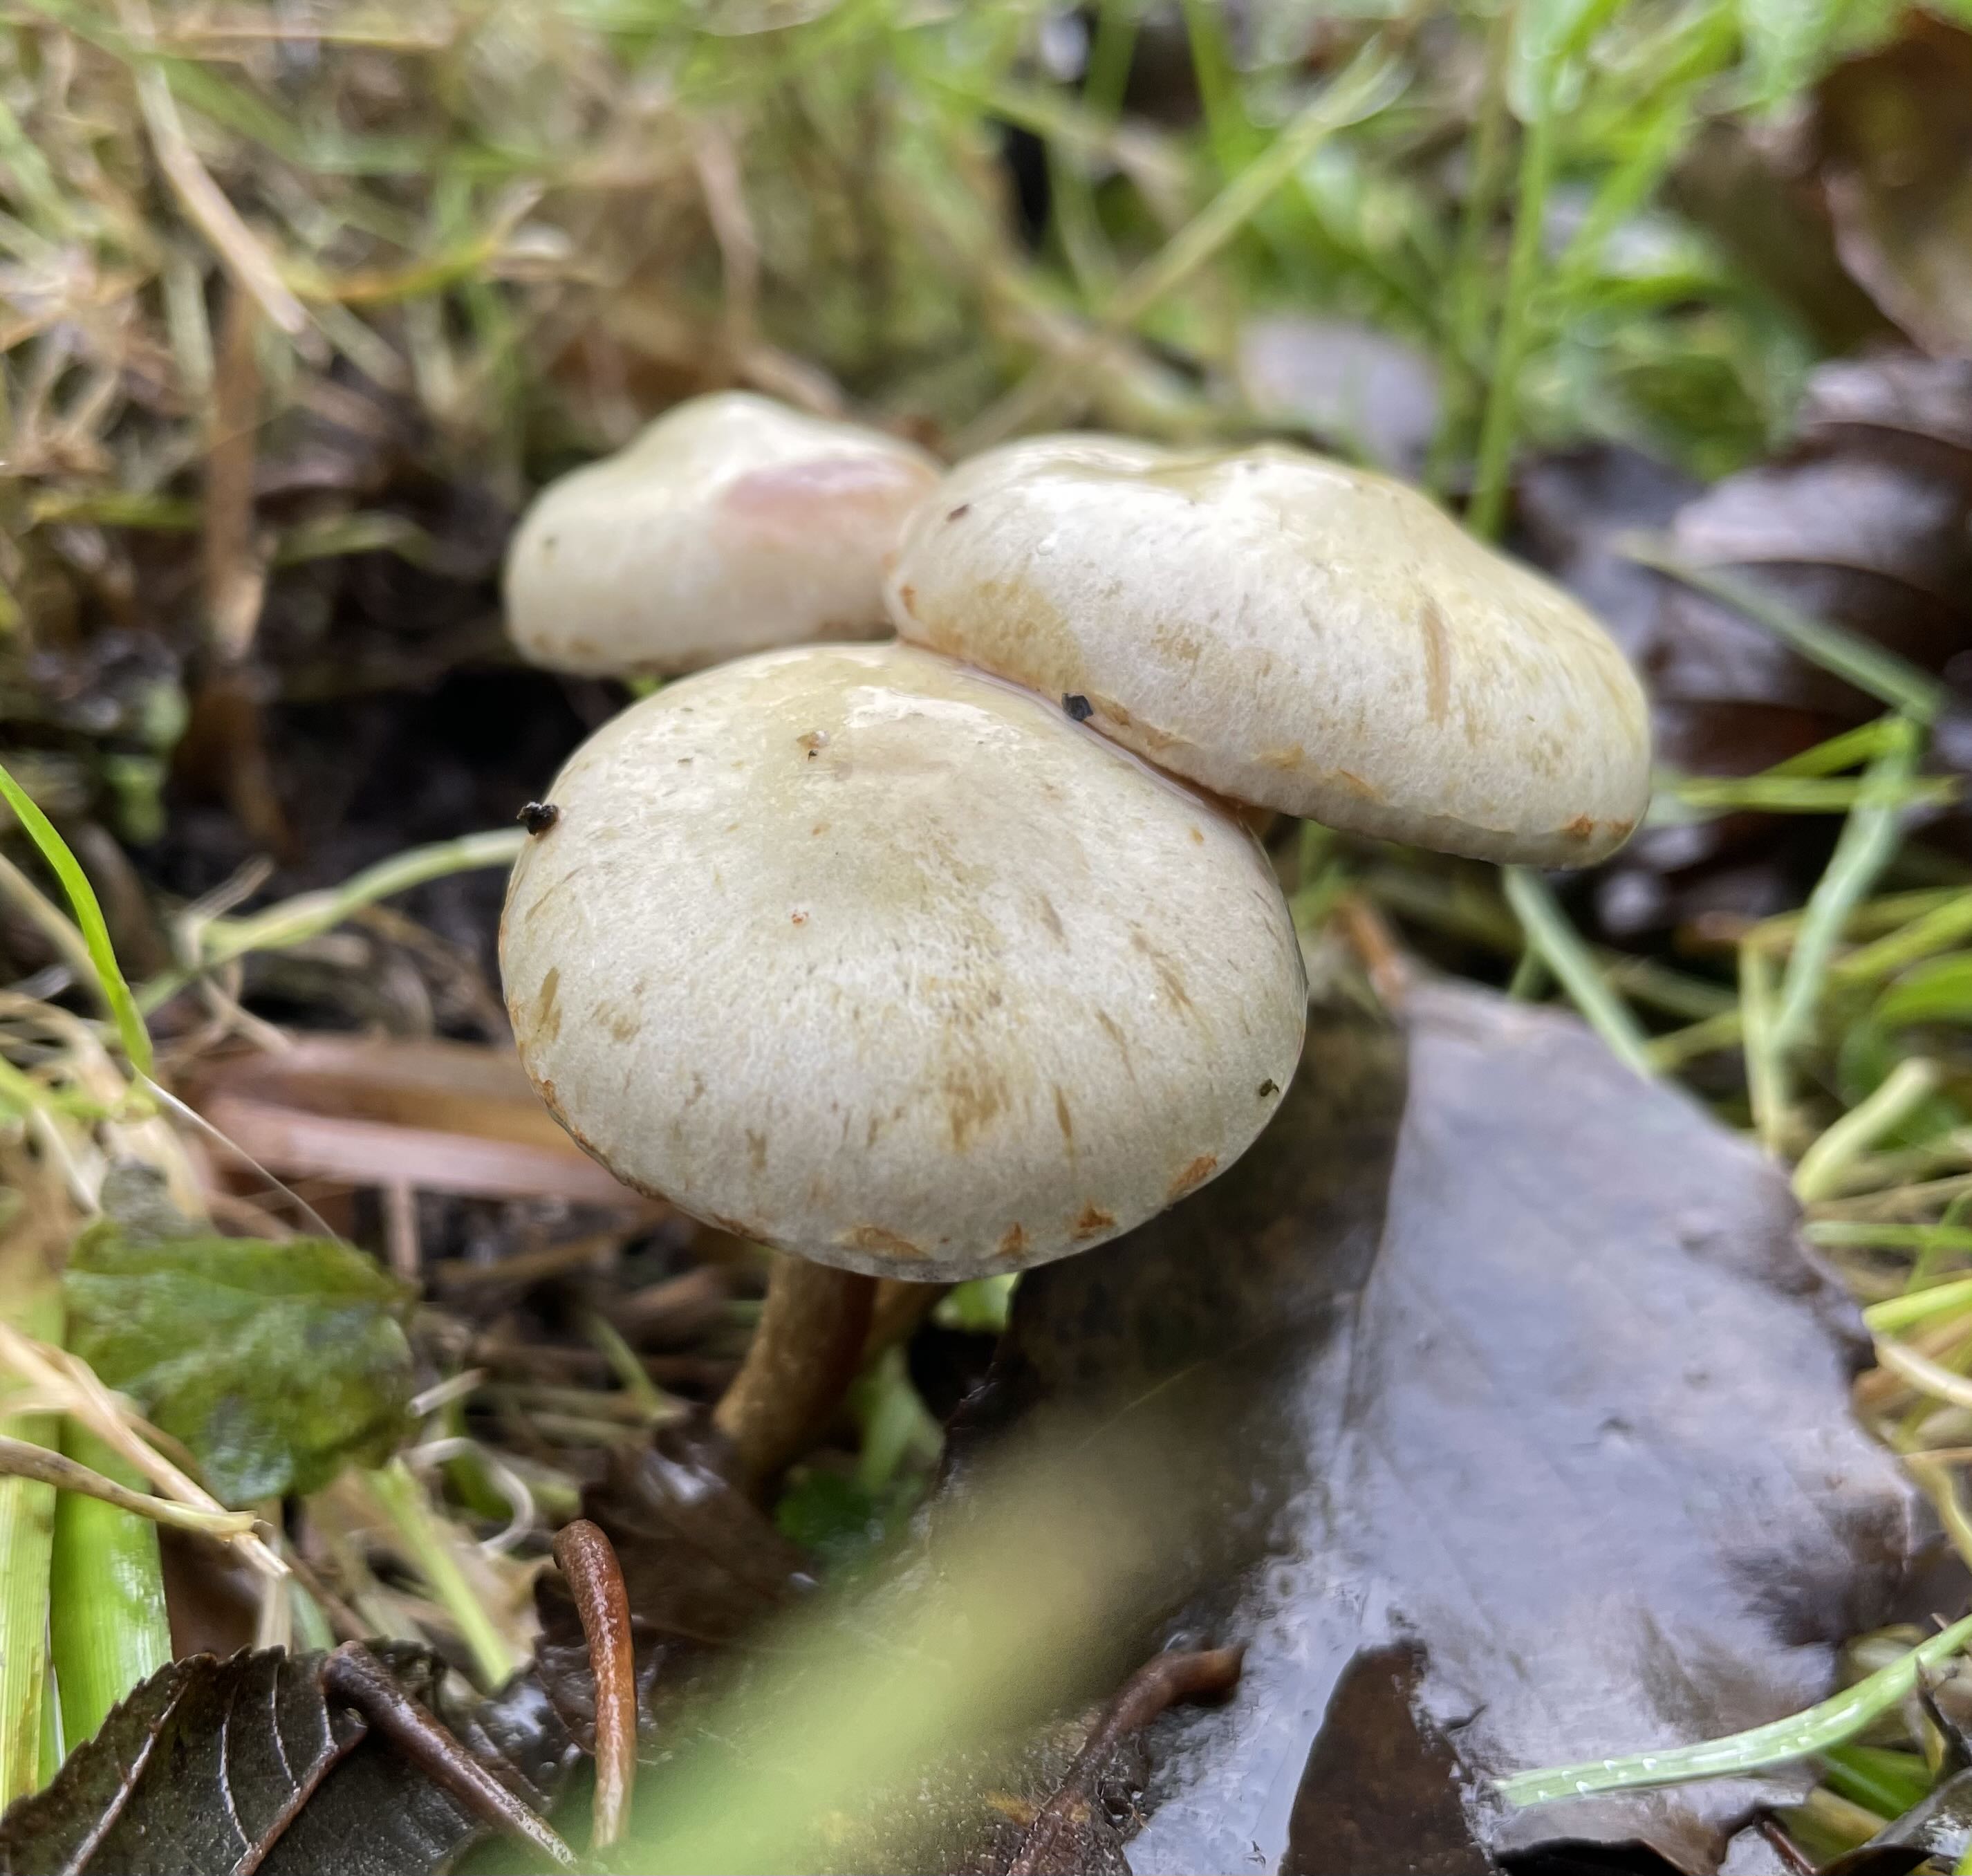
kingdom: Fungi
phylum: Basidiomycota
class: Agaricomycetes
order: Agaricales
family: Strophariaceae
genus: Pholiota
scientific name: Pholiota gummosa
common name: grøngul skælhat
